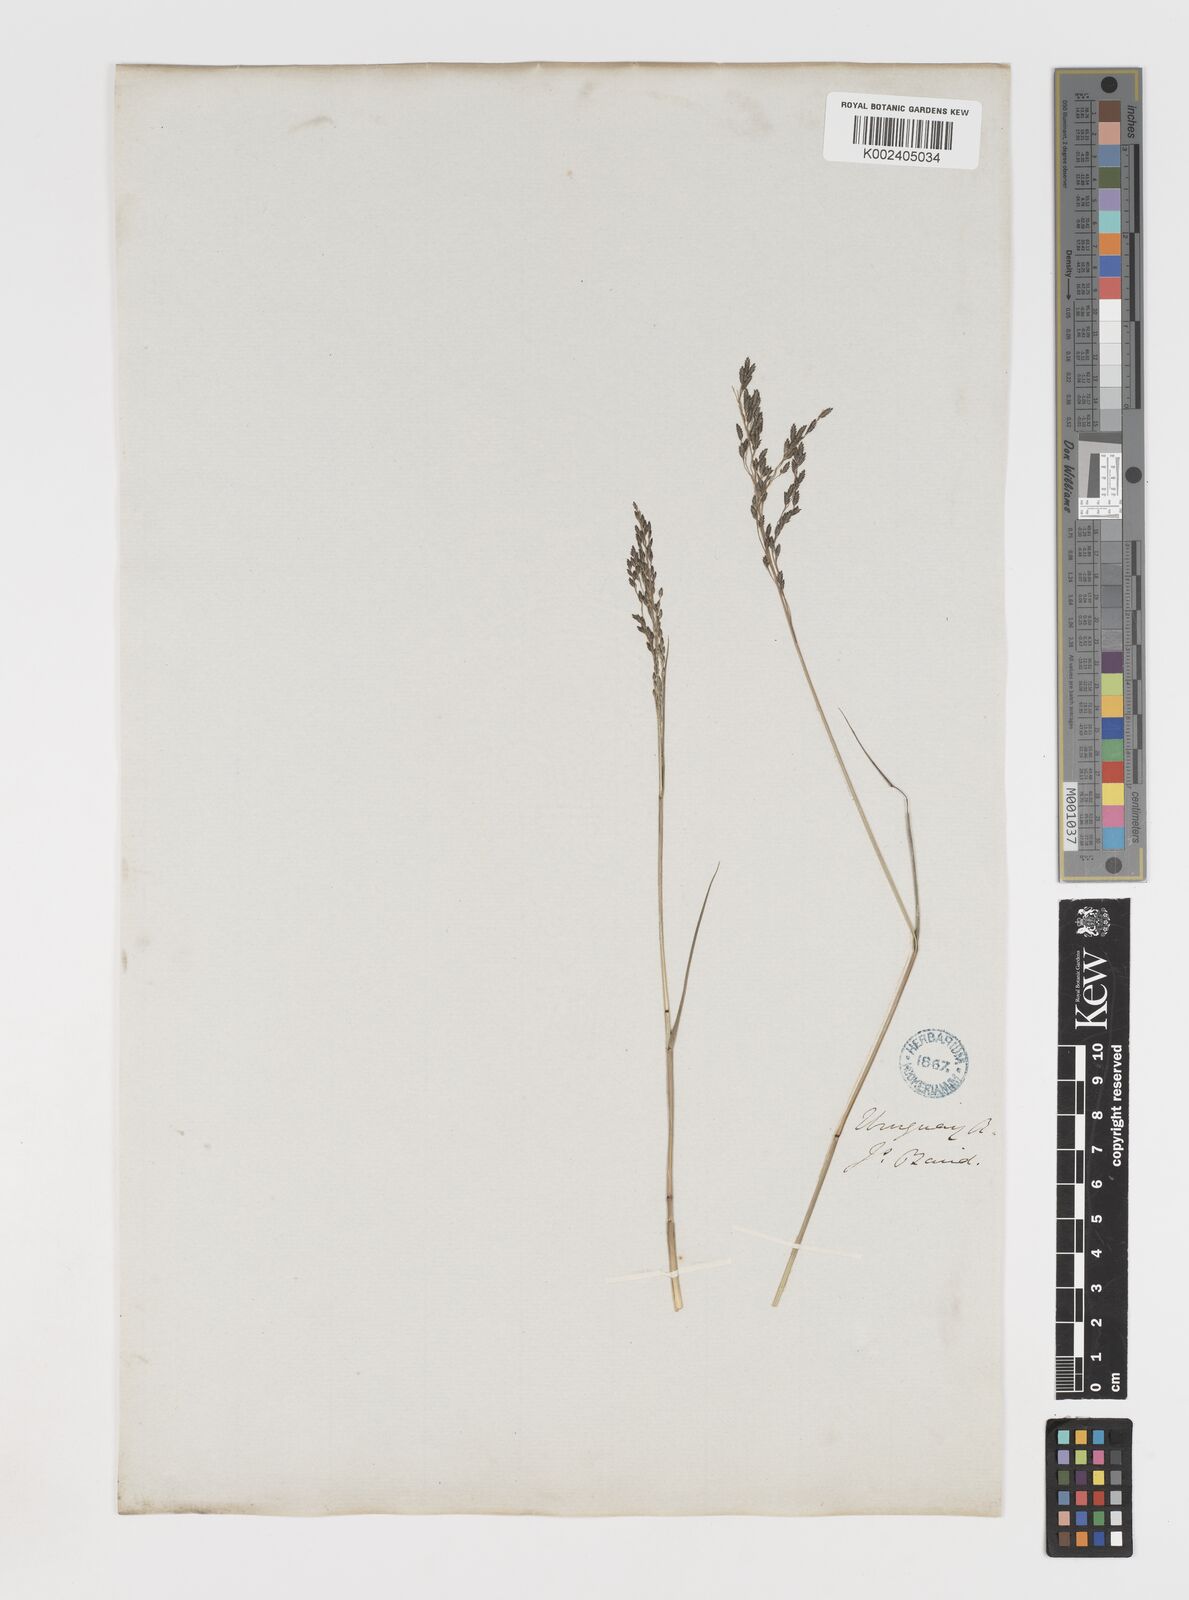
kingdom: Plantae
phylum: Tracheophyta
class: Liliopsida
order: Poales
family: Poaceae
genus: Eragrostis
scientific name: Eragrostis
